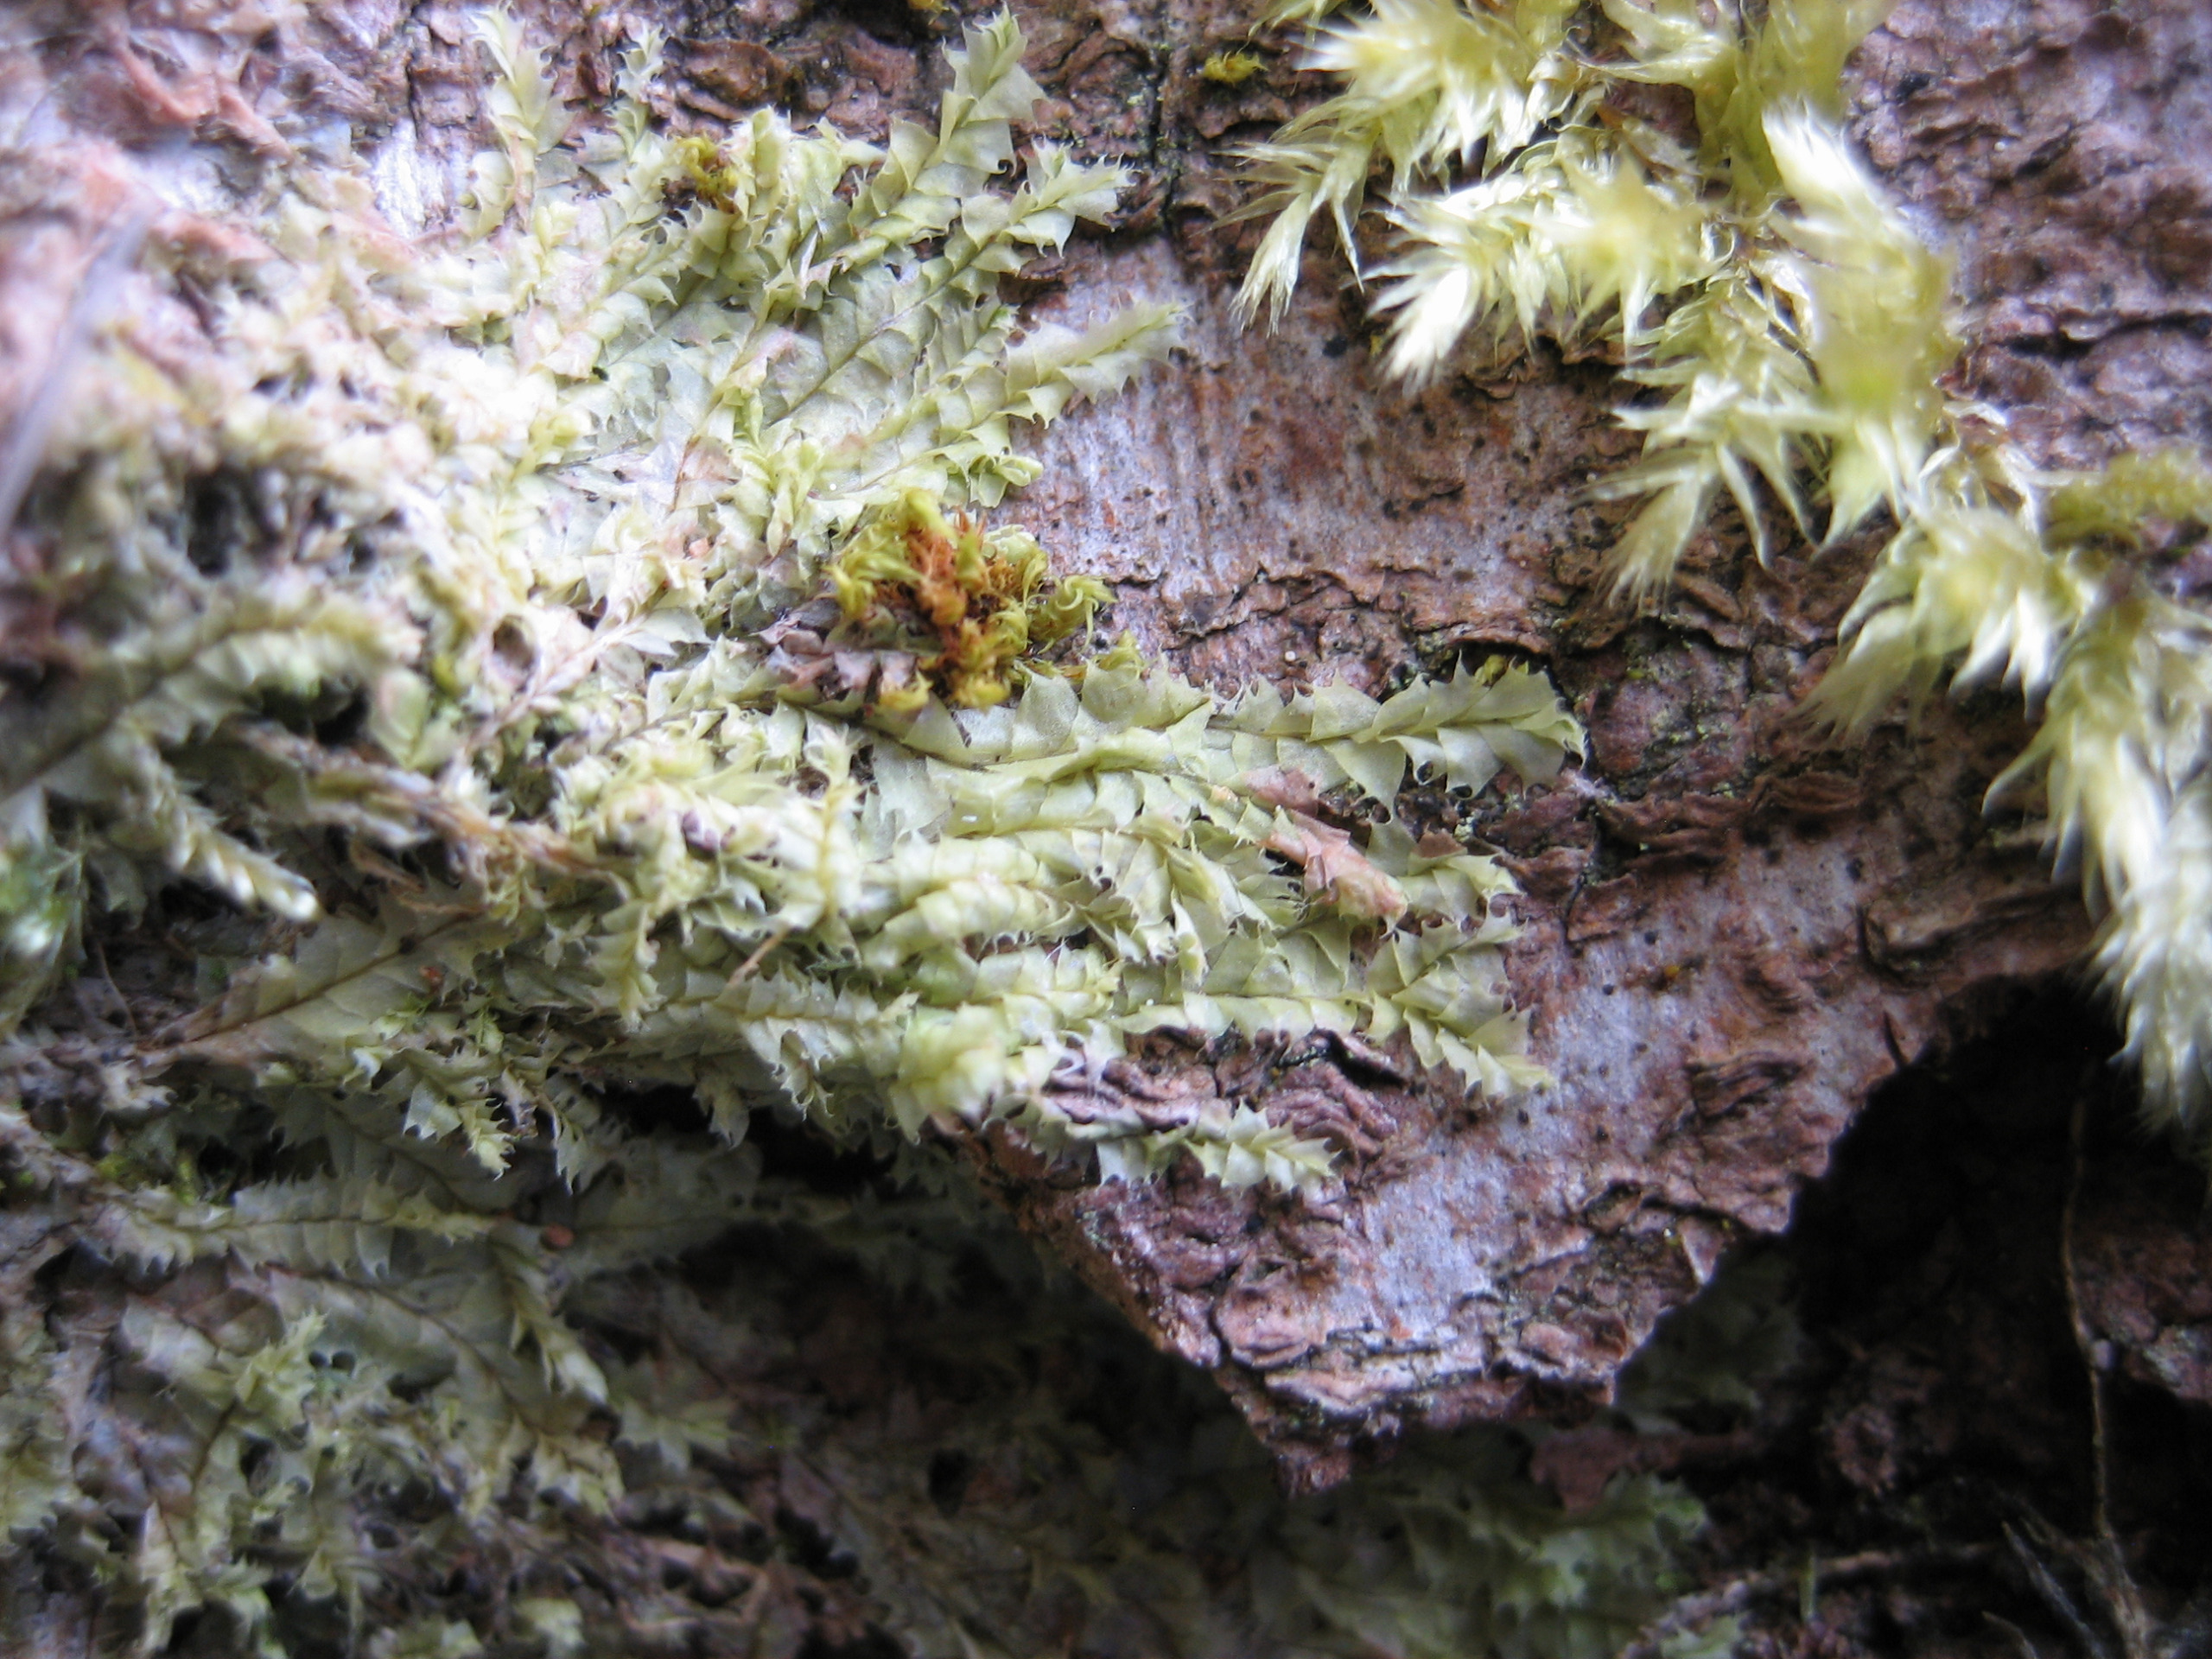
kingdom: Plantae
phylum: Marchantiophyta
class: Jungermanniopsida
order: Jungermanniales
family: Lophocoleaceae
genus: Lophocolea
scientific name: Lophocolea bidentata
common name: Sylspidset kamsvøb
